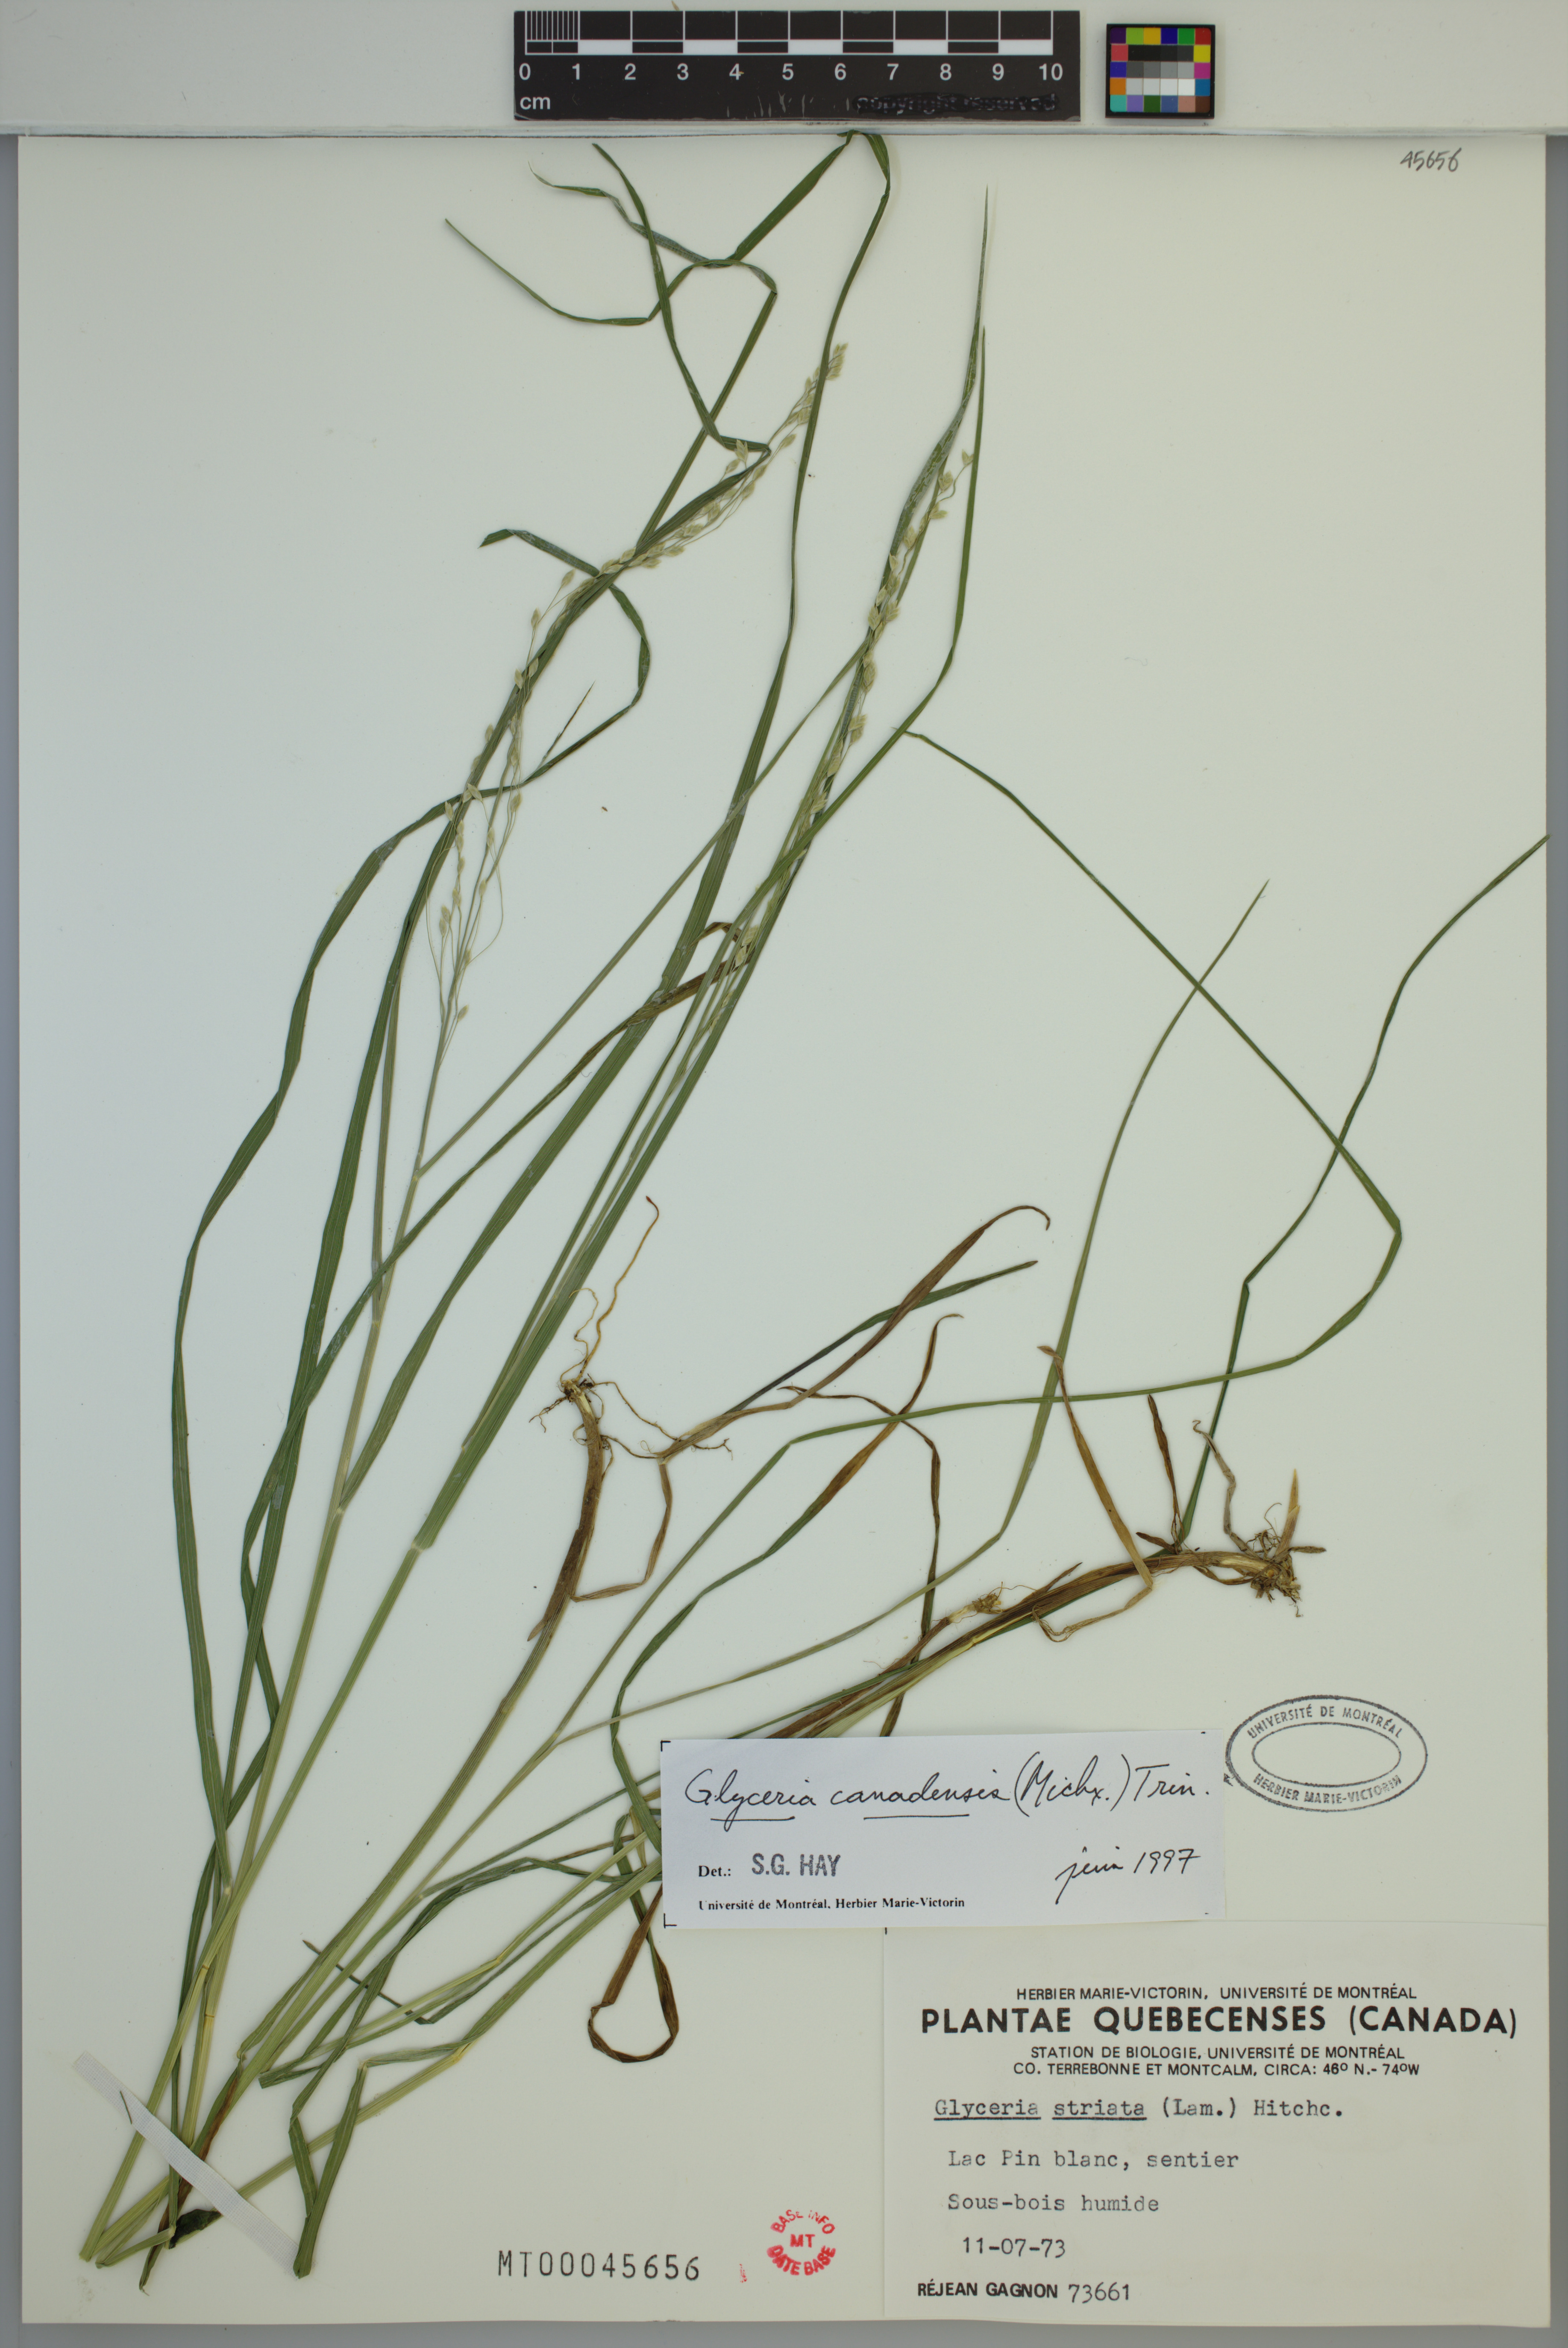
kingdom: Plantae
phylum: Tracheophyta
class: Liliopsida
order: Poales
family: Poaceae
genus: Glyceria
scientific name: Glyceria canadensis
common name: Canada mannagrass
